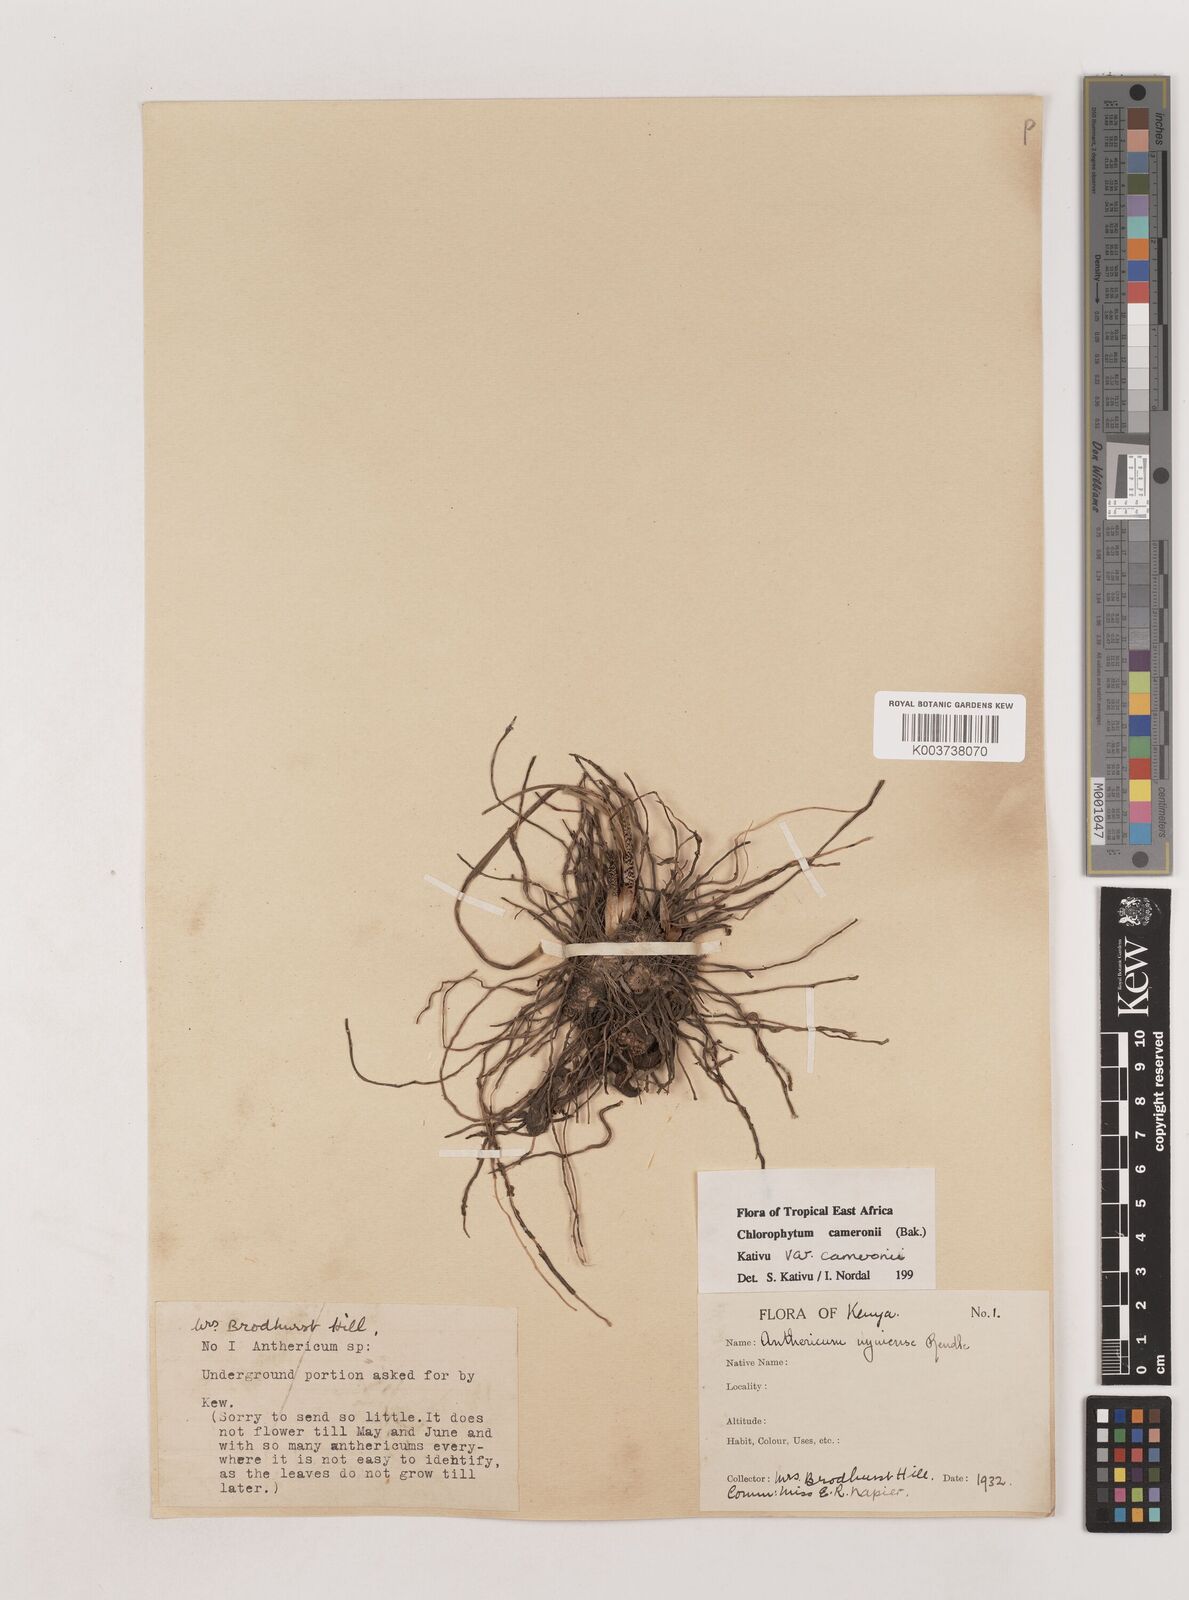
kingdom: Plantae
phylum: Tracheophyta
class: Liliopsida
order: Asparagales
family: Asparagaceae
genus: Chlorophytum
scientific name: Chlorophytum cameronii
